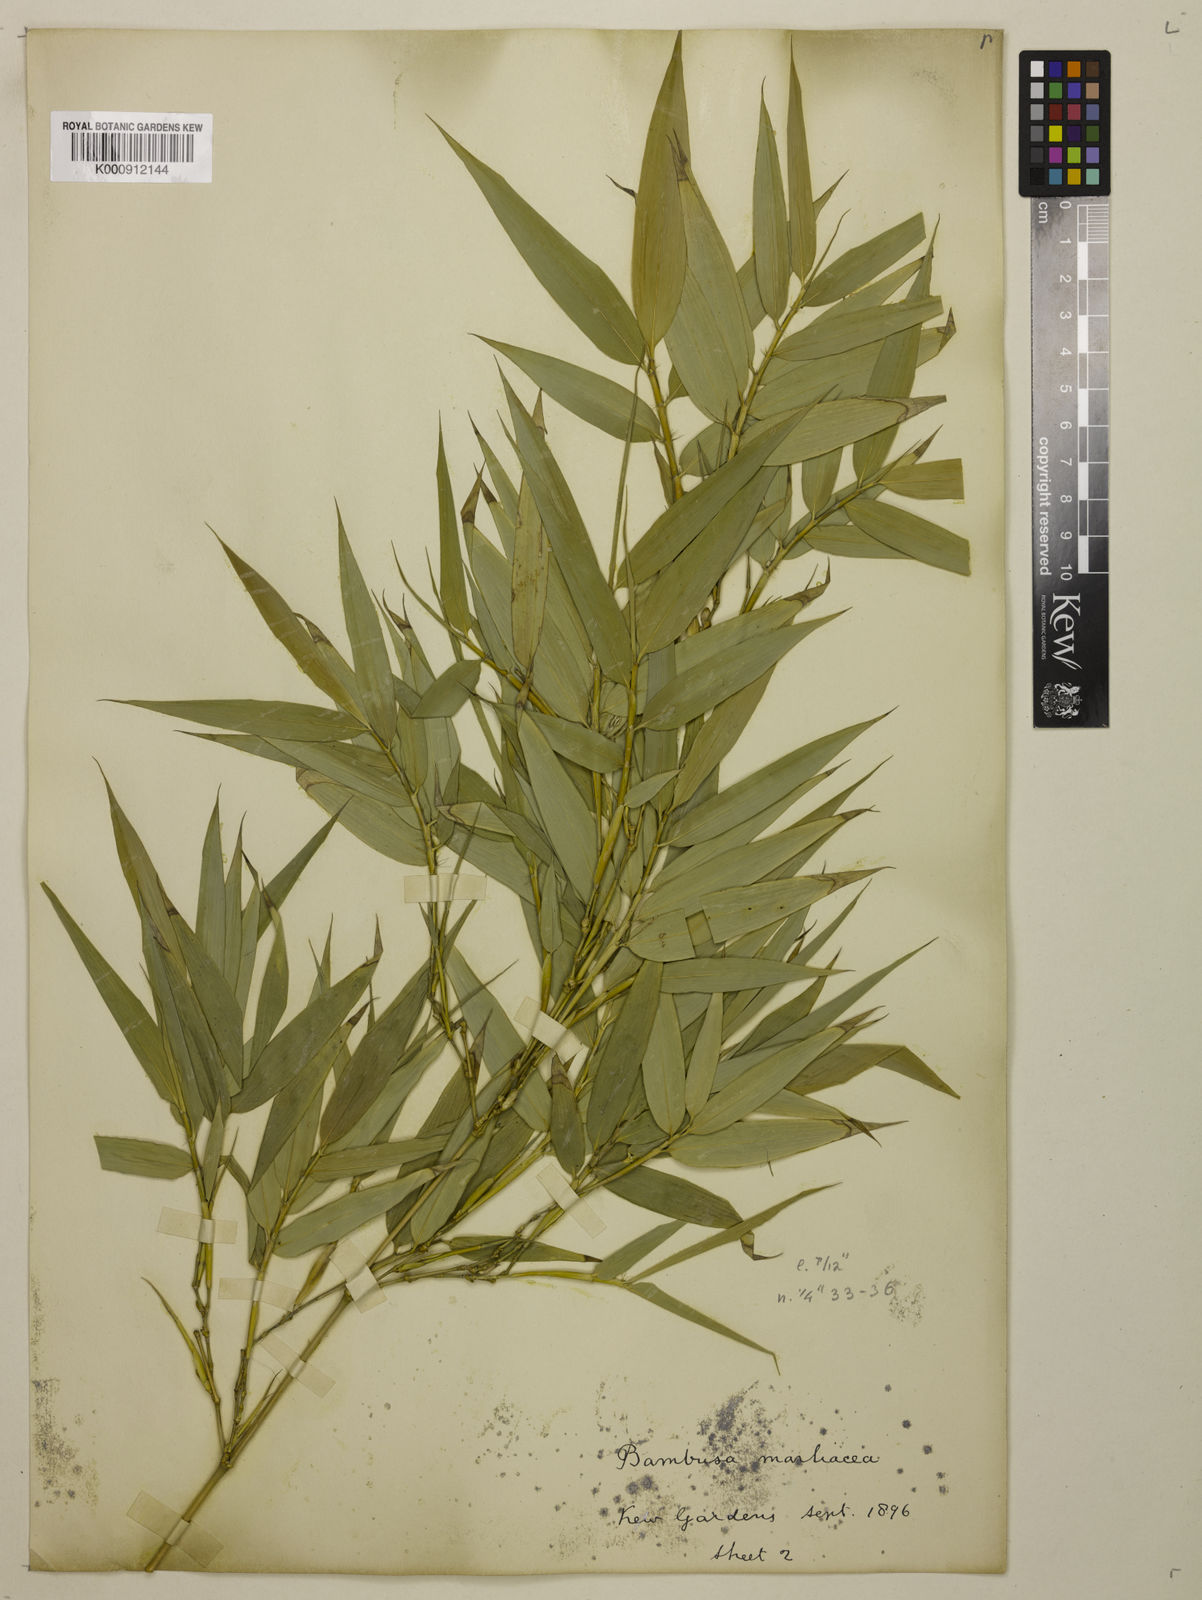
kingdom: Plantae
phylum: Tracheophyta
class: Liliopsida
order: Poales
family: Poaceae
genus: Phyllostachys
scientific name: Phyllostachys reticulata
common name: Bamboo
